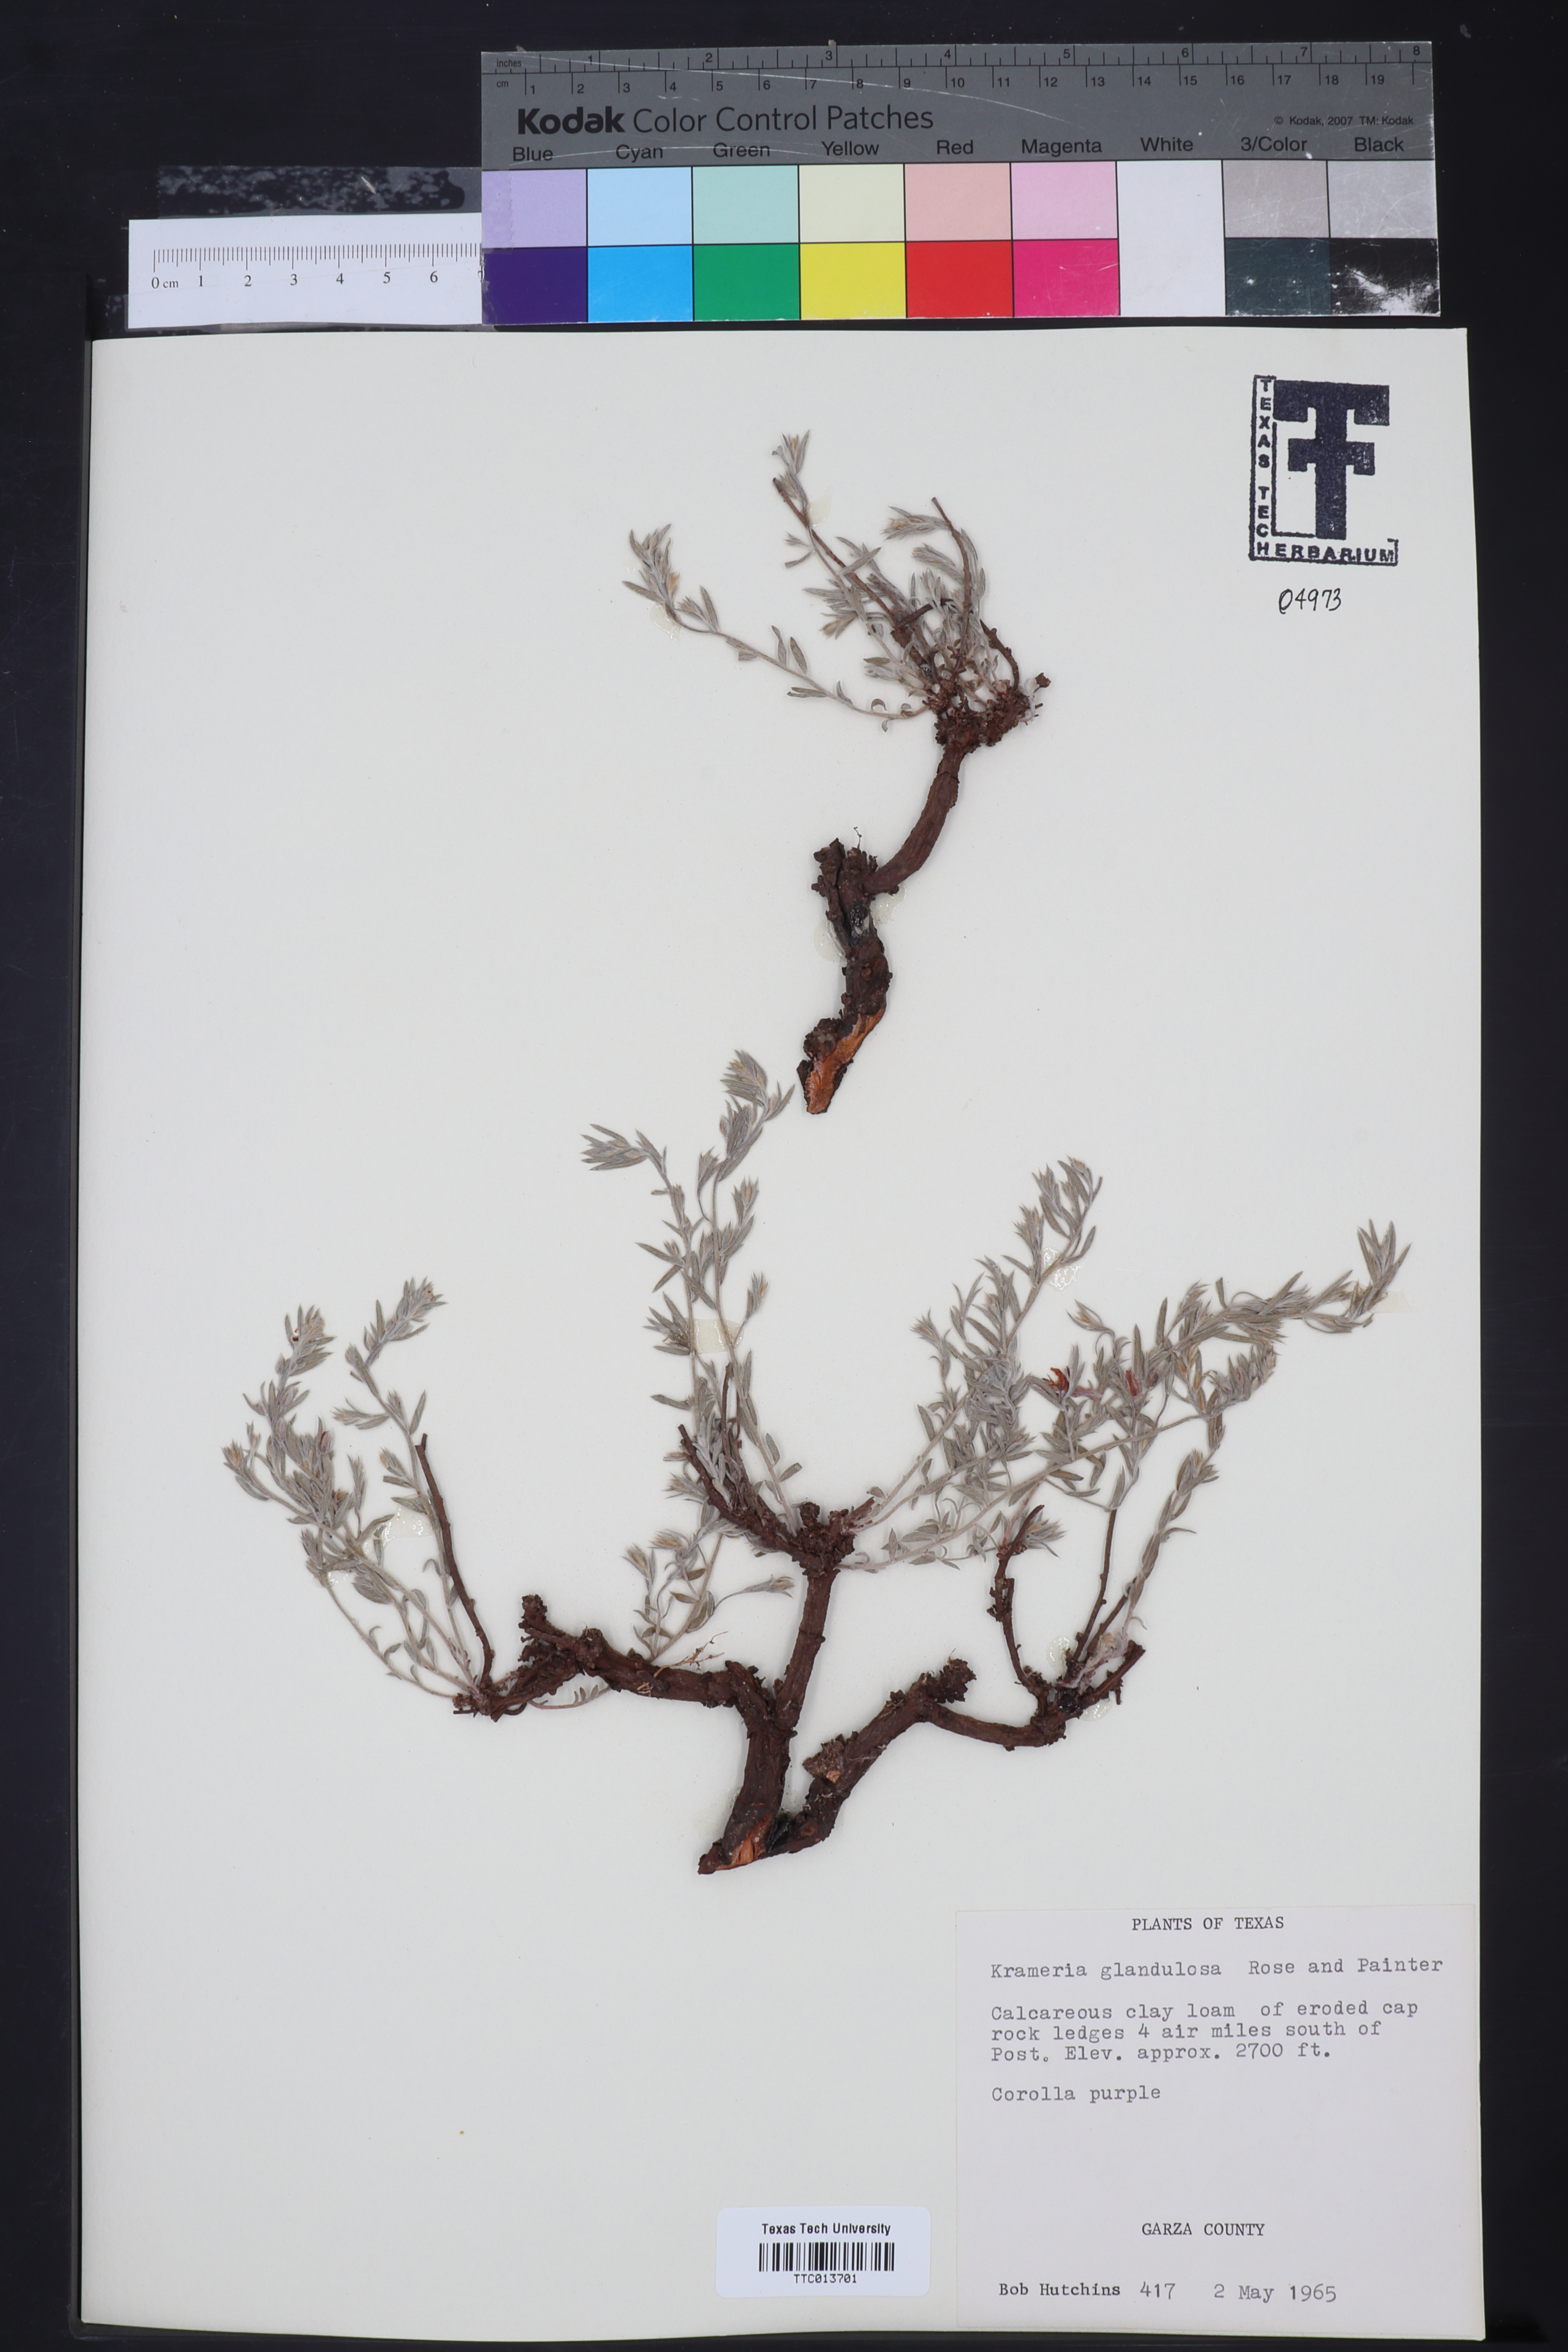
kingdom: Plantae
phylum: Tracheophyta
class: Magnoliopsida
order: Zygophyllales
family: Krameriaceae
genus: Krameria
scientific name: Krameria erecta
